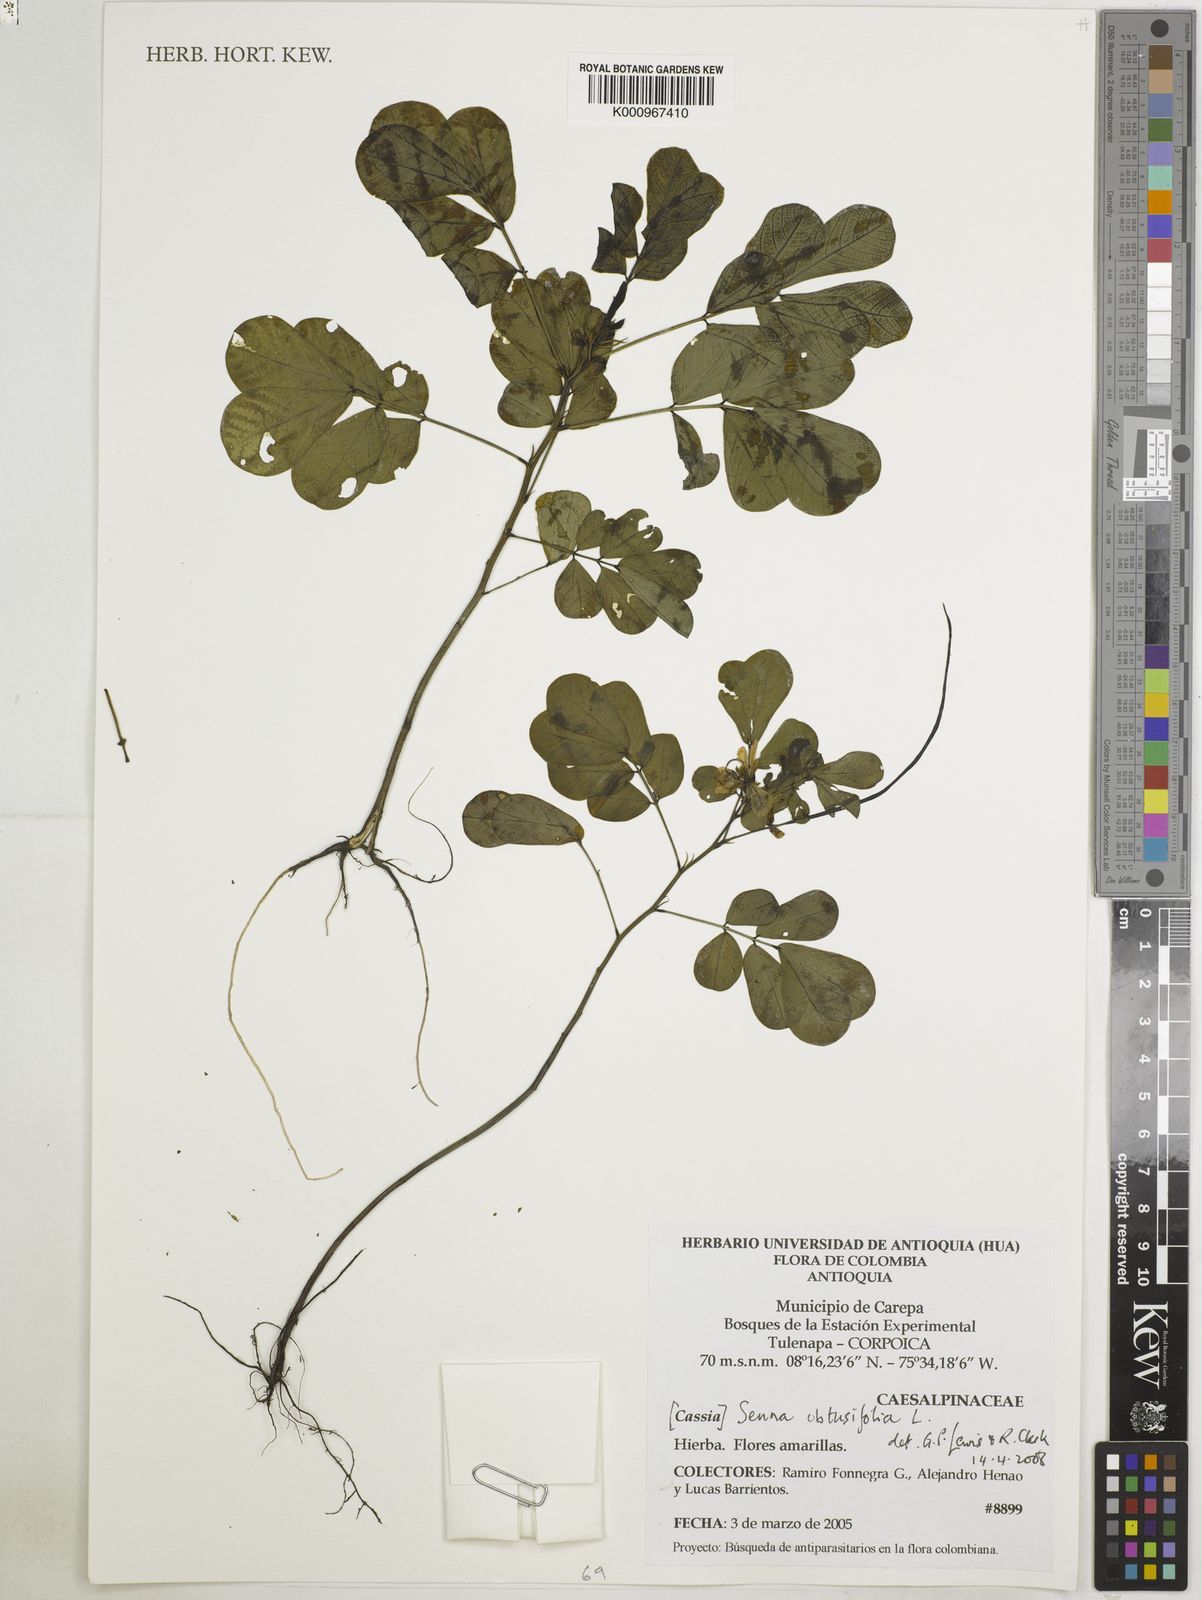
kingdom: Plantae
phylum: Tracheophyta
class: Magnoliopsida
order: Fabales
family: Fabaceae
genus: Senna
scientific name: Senna obtusifolia
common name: Java-bean
